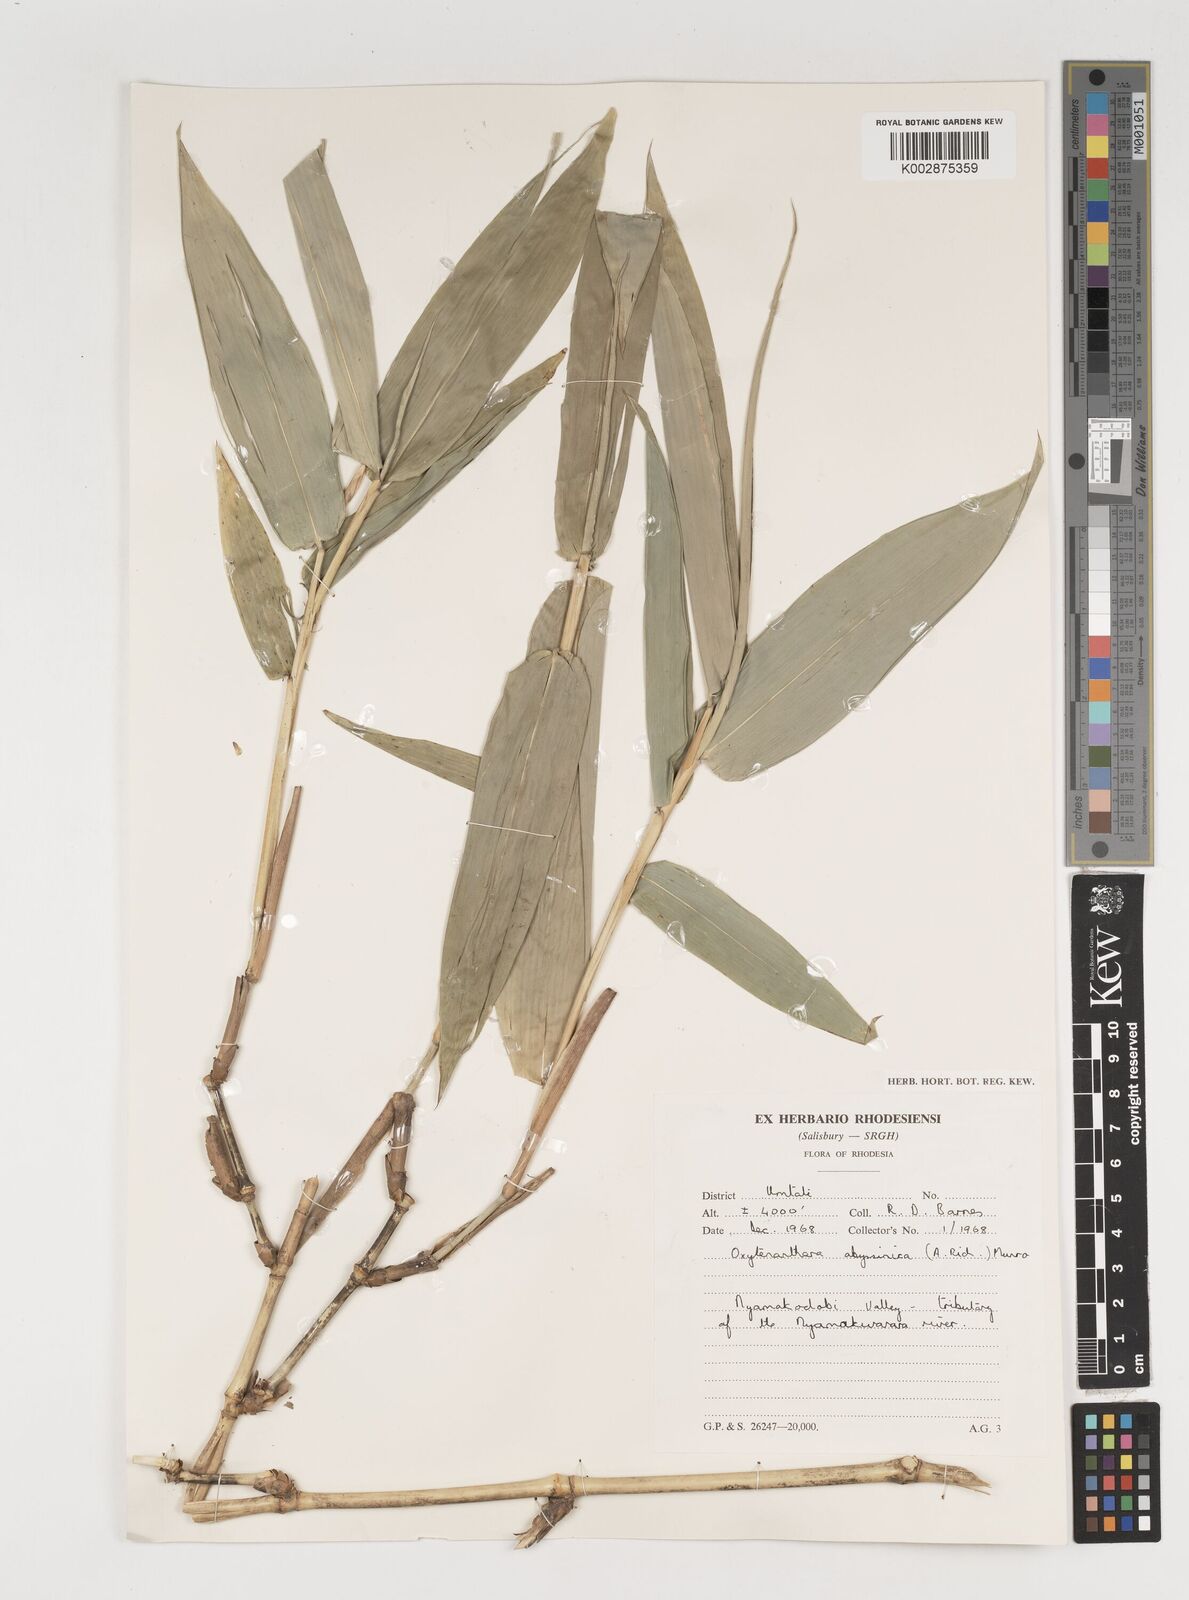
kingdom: Plantae
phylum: Tracheophyta
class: Liliopsida
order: Poales
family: Poaceae
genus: Oxytenanthera
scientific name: Oxytenanthera abyssinica
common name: Wine bamboo
